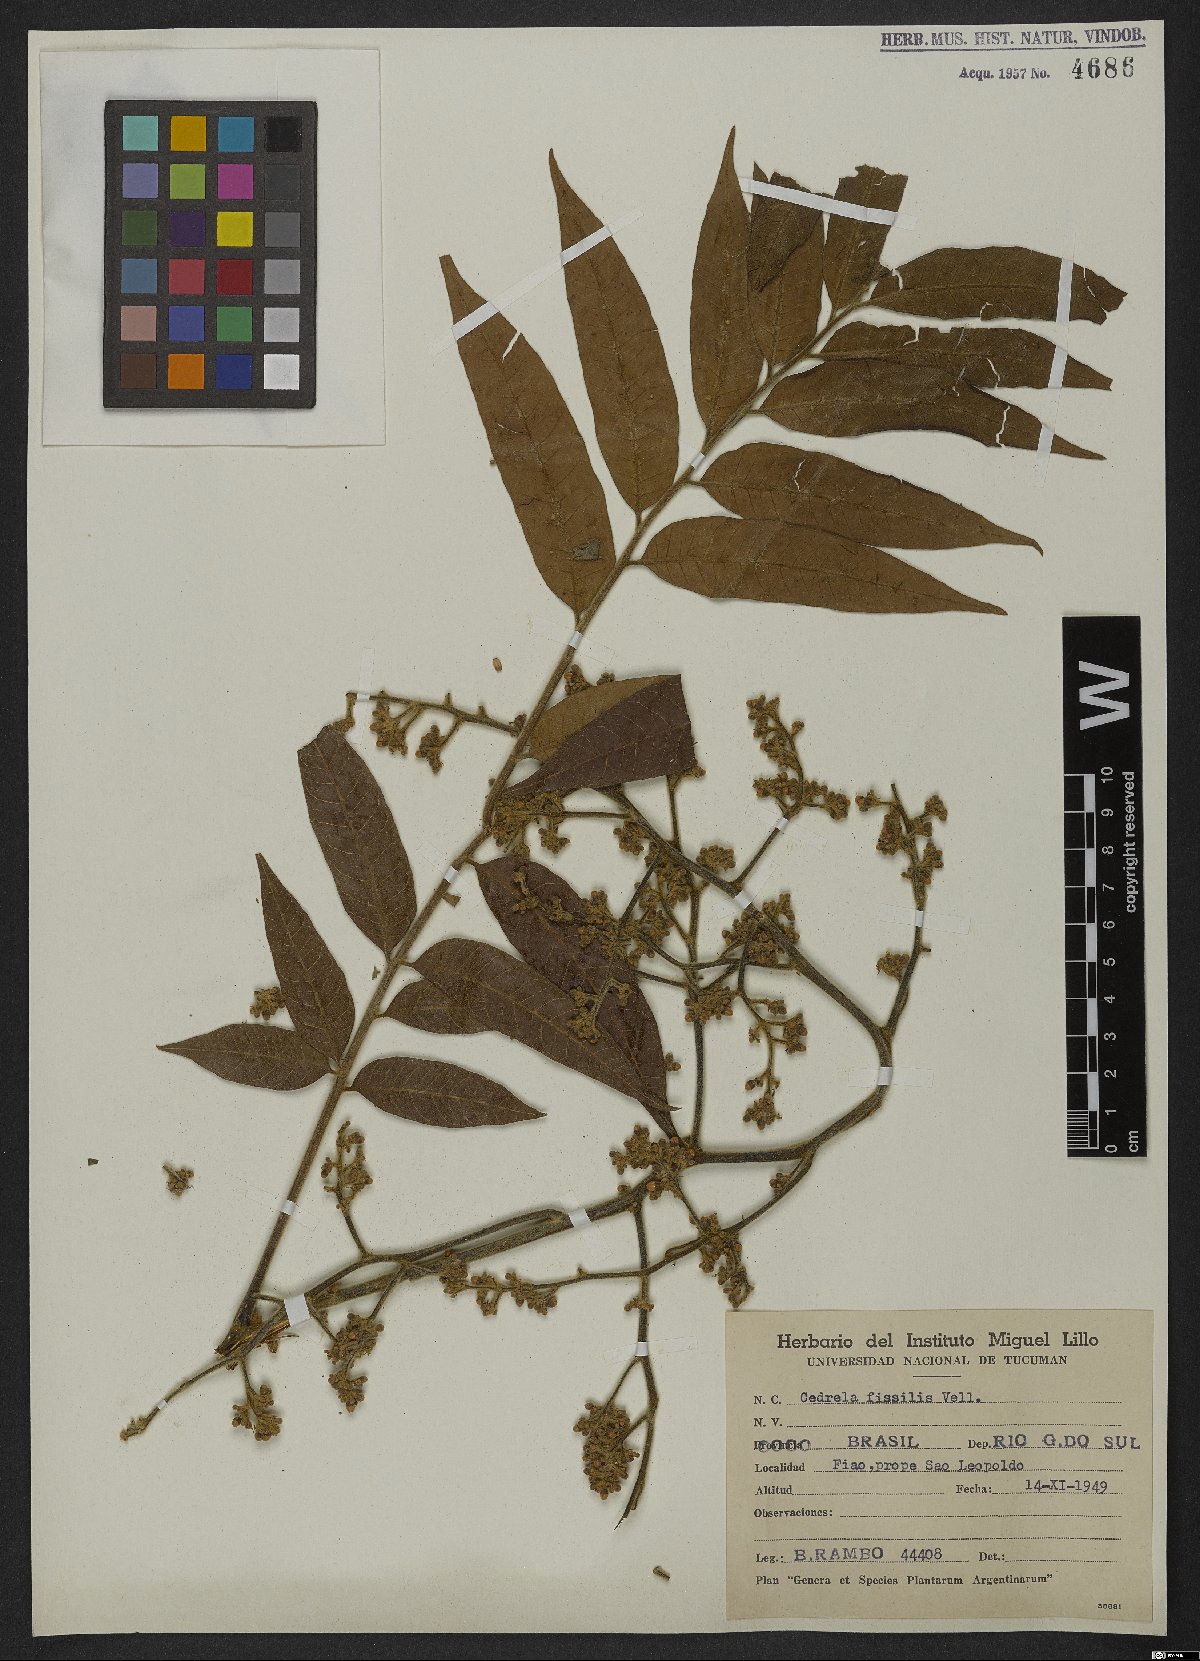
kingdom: Plantae
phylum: Tracheophyta
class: Magnoliopsida
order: Sapindales
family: Meliaceae
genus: Cedrela
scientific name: Cedrela fissilis
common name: Argentine cedar
